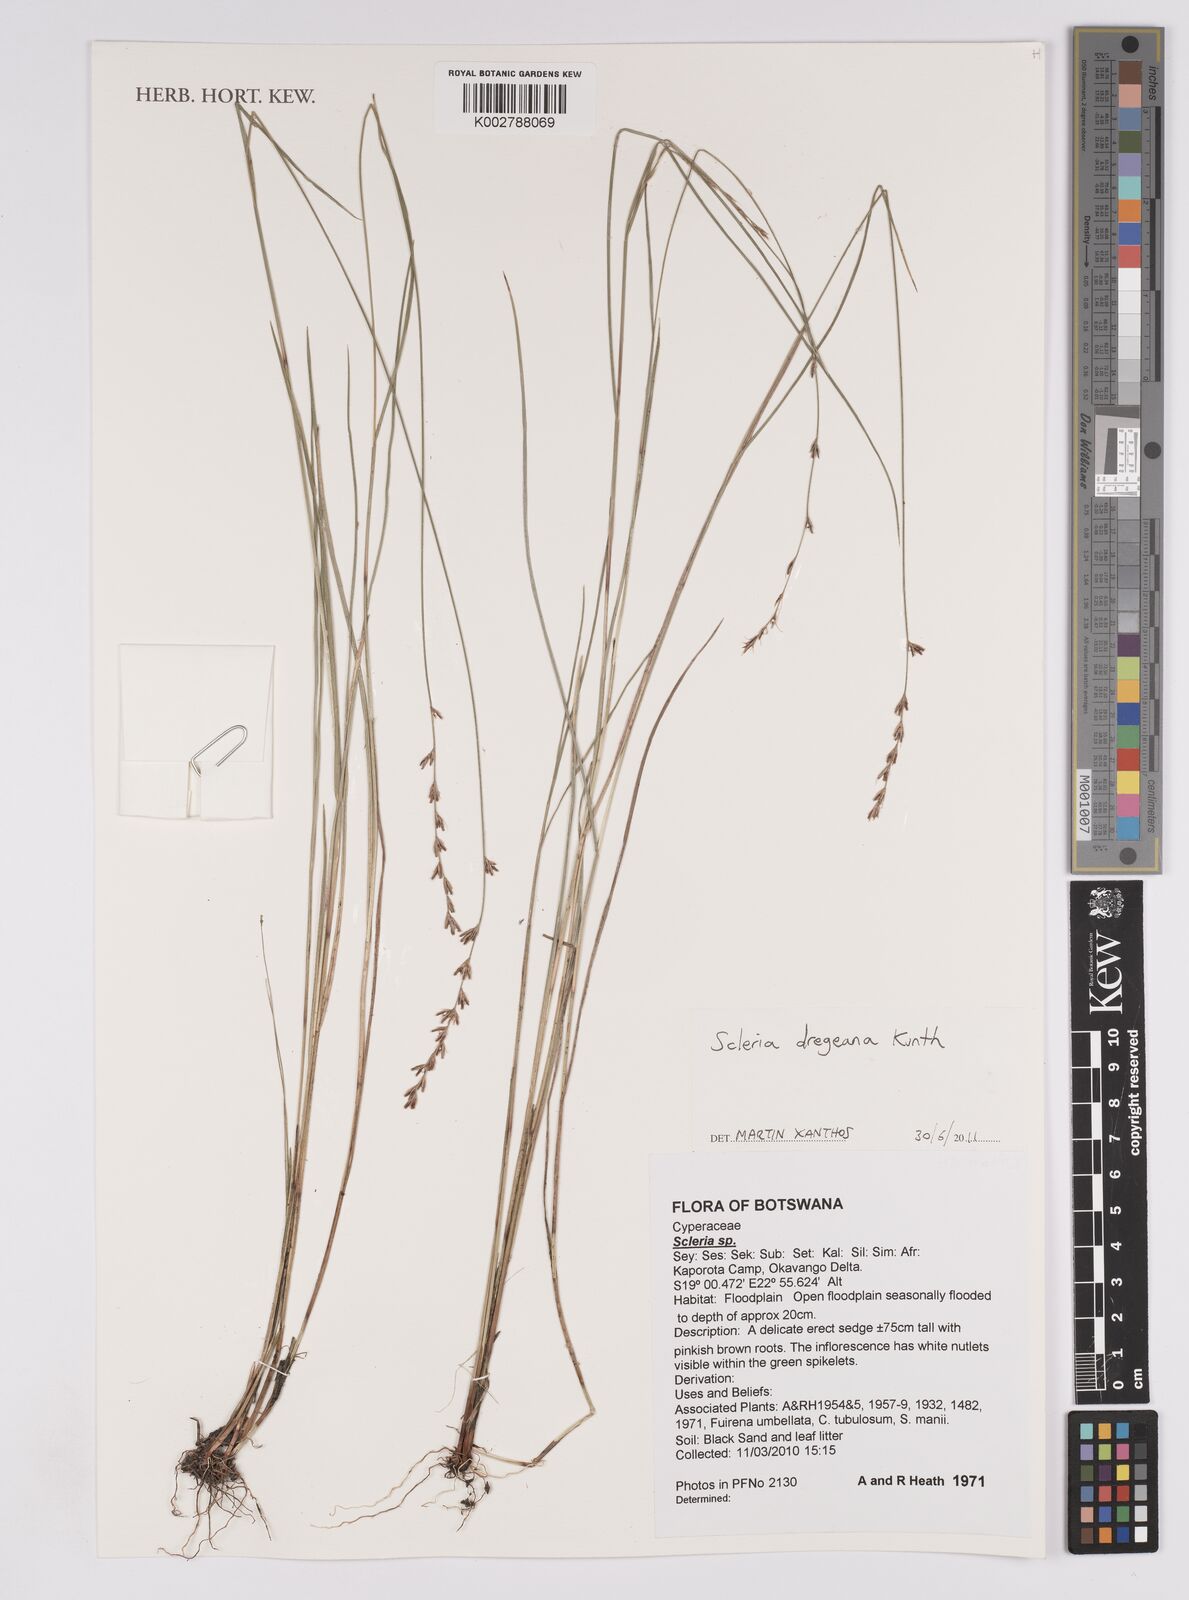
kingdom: Plantae
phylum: Tracheophyta
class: Liliopsida
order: Poales
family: Cyperaceae
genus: Scleria
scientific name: Scleria dregeana
